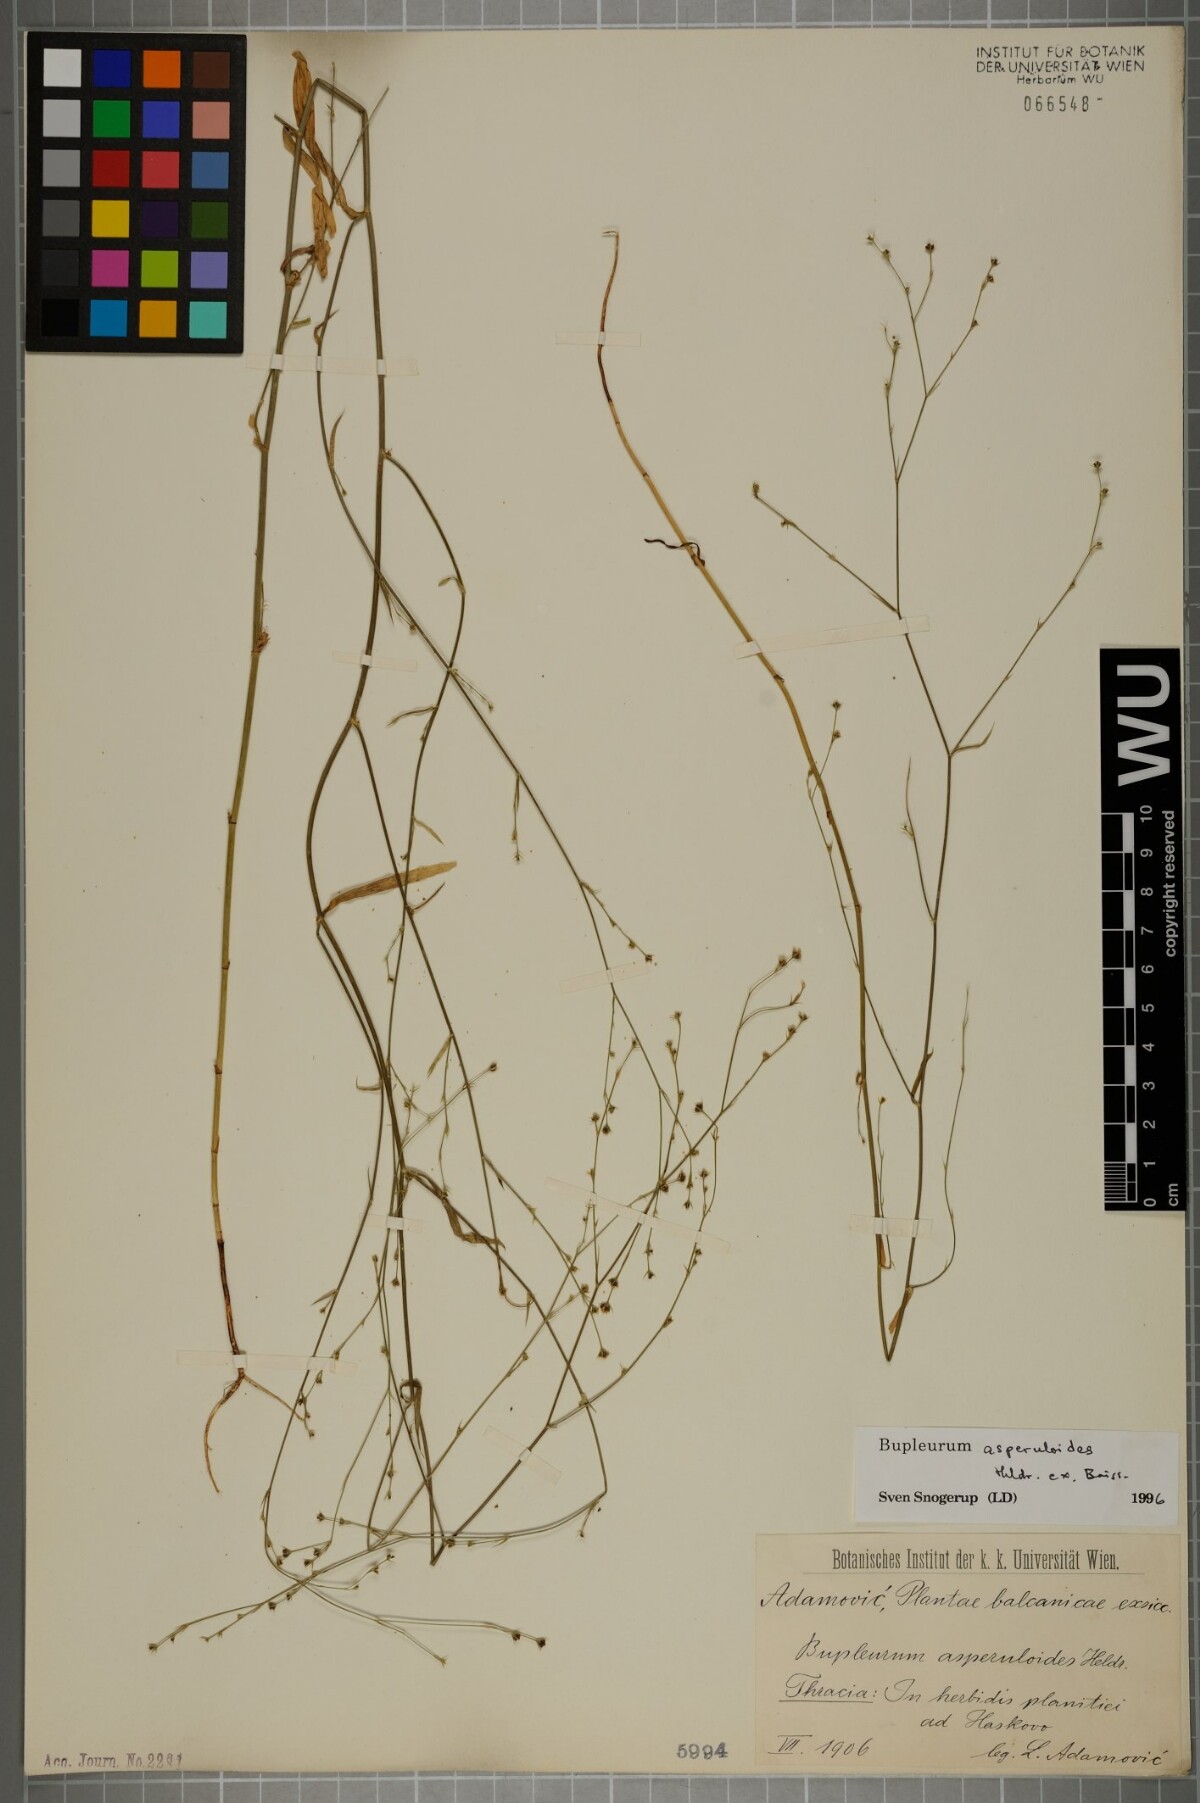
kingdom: Plantae
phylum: Tracheophyta
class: Magnoliopsida
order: Apiales
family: Apiaceae
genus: Bupleurum
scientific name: Bupleurum asperuloides
